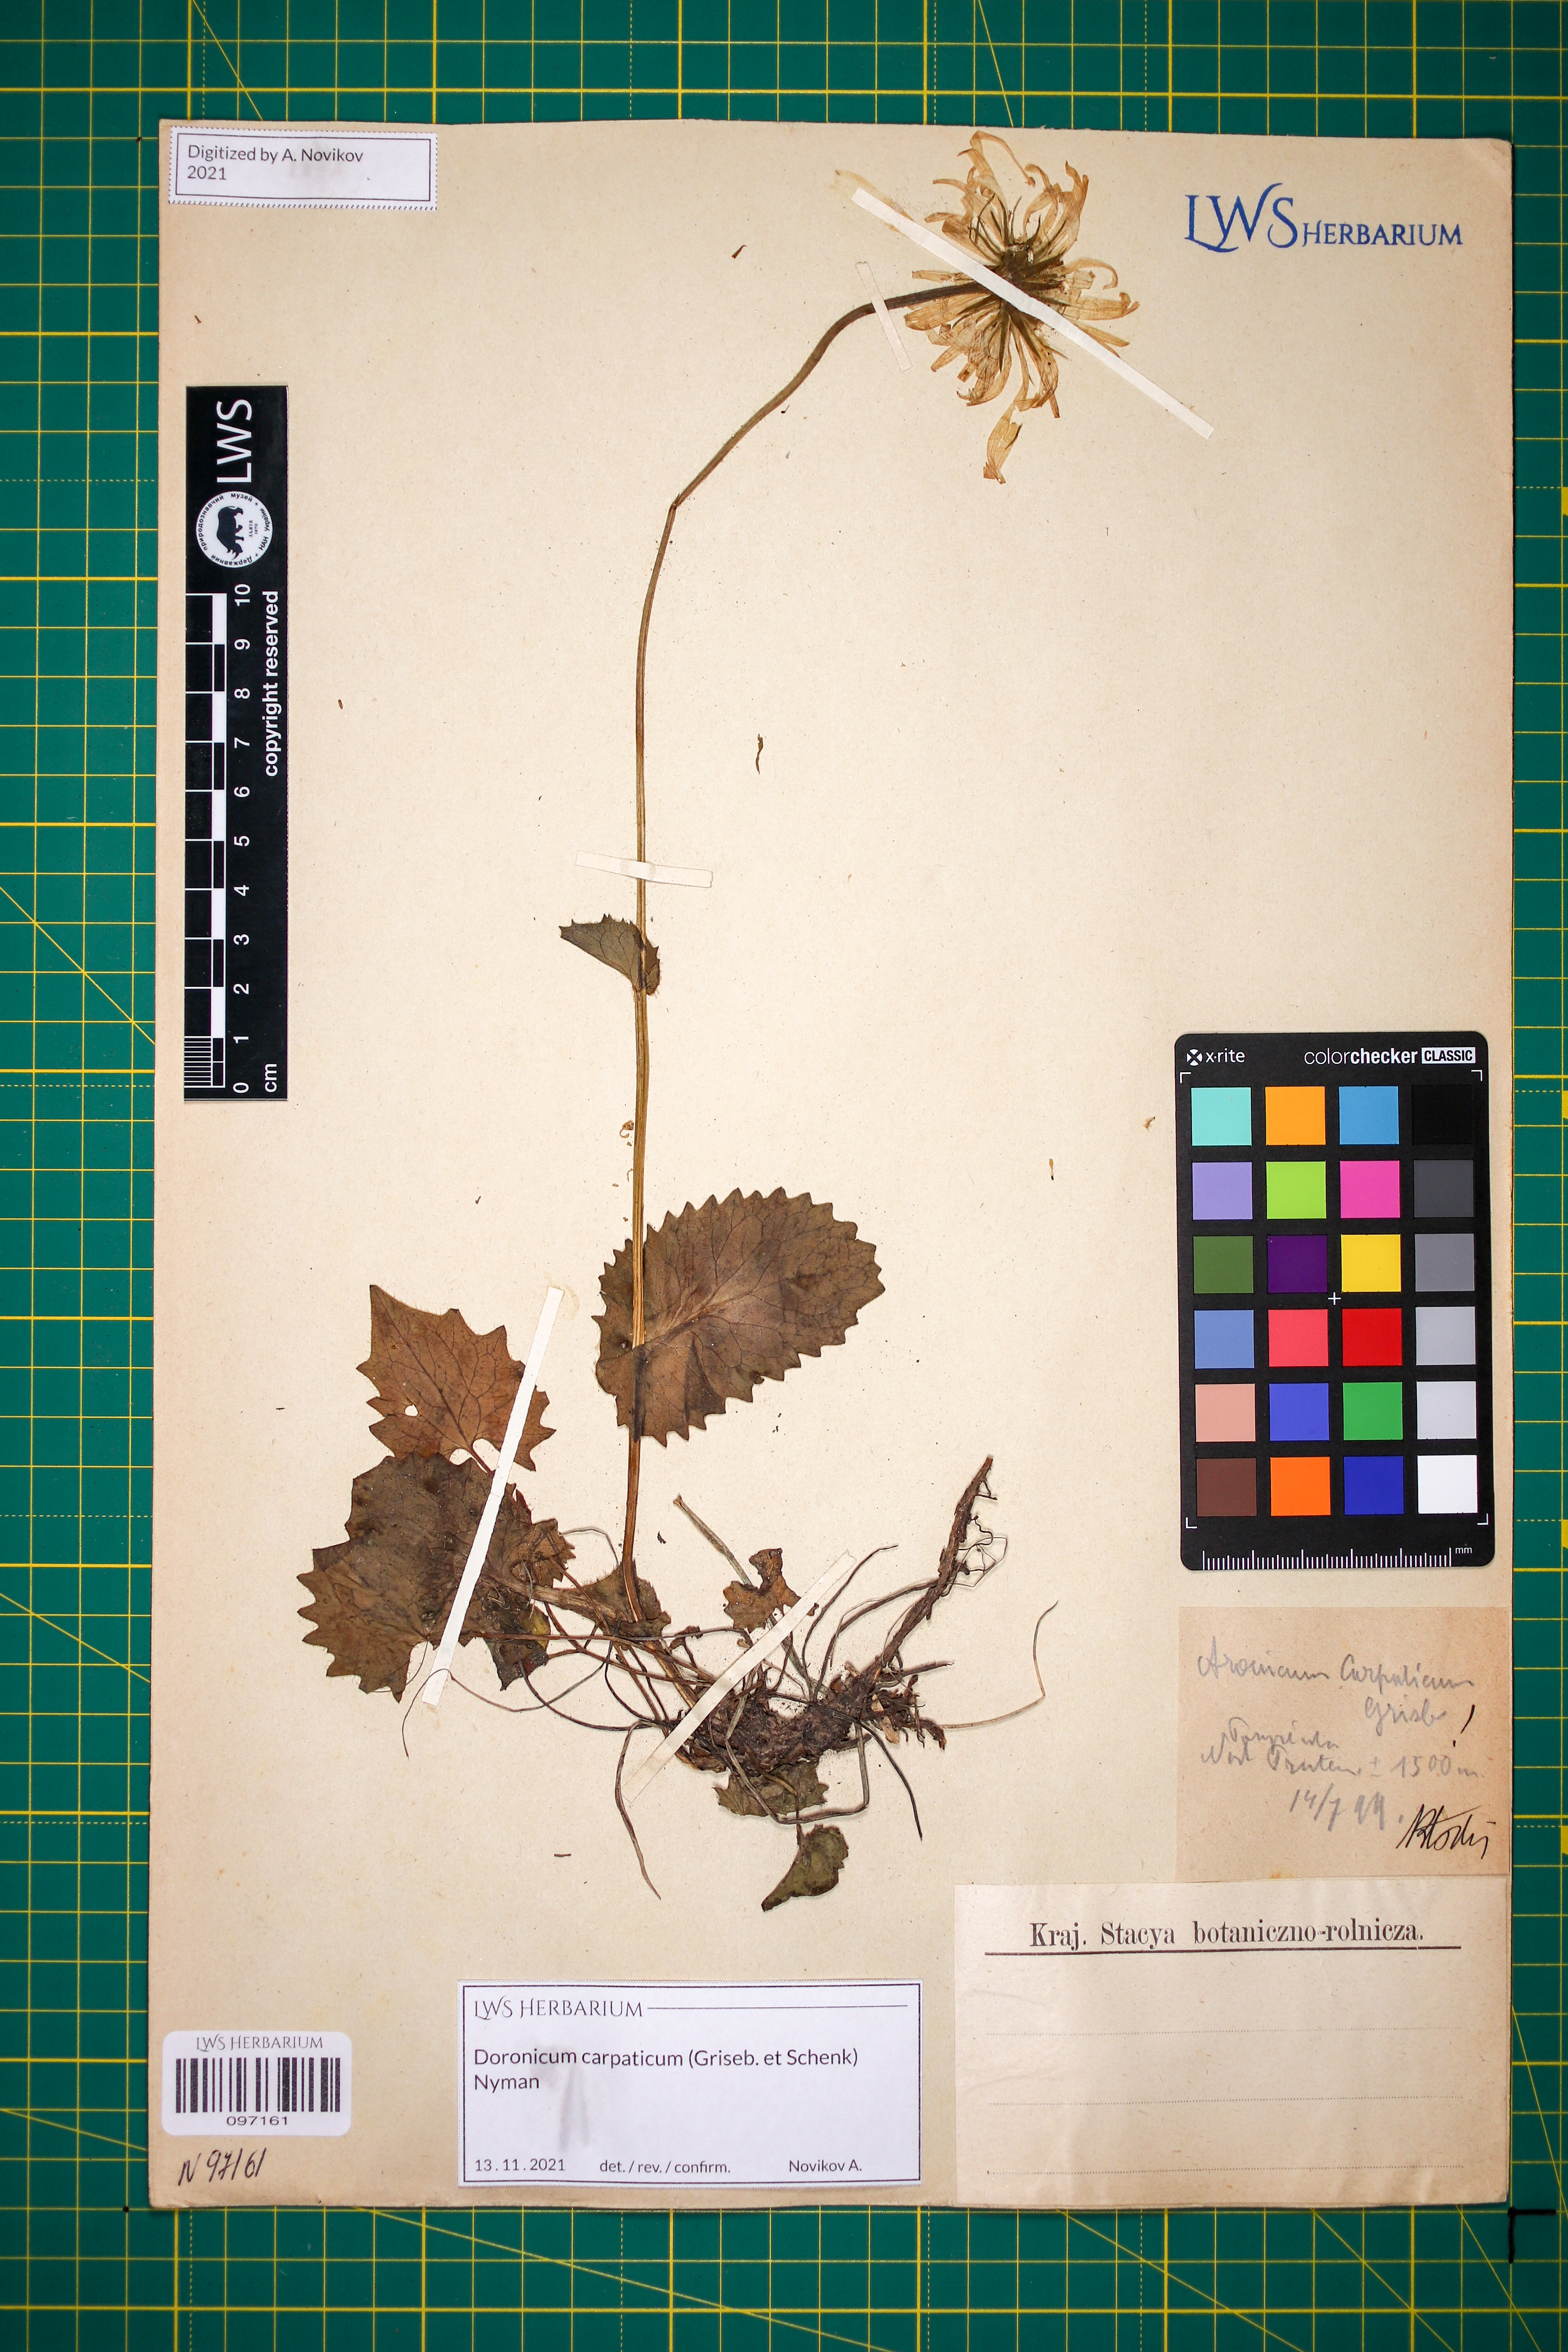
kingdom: Plantae
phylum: Tracheophyta
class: Magnoliopsida
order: Asterales
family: Asteraceae
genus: Doronicum
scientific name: Doronicum carpaticum
